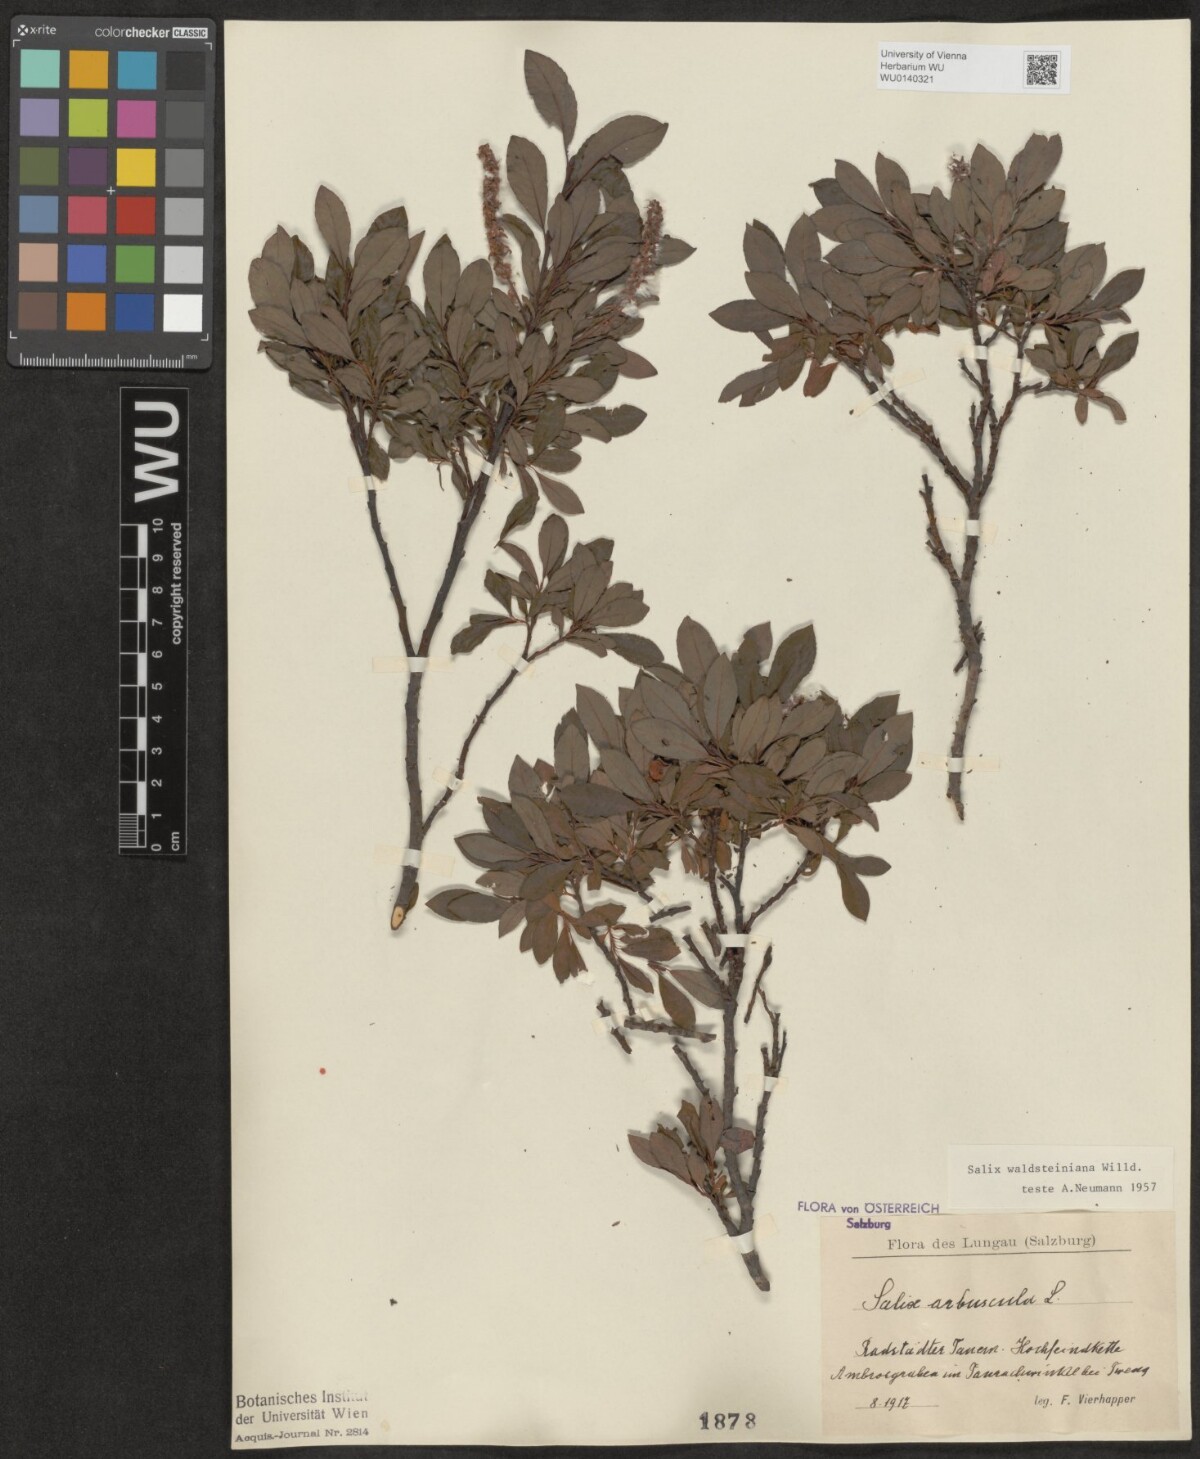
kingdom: Plantae
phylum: Tracheophyta
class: Magnoliopsida
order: Malpighiales
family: Salicaceae
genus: Salix
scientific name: Salix waldsteiniana
